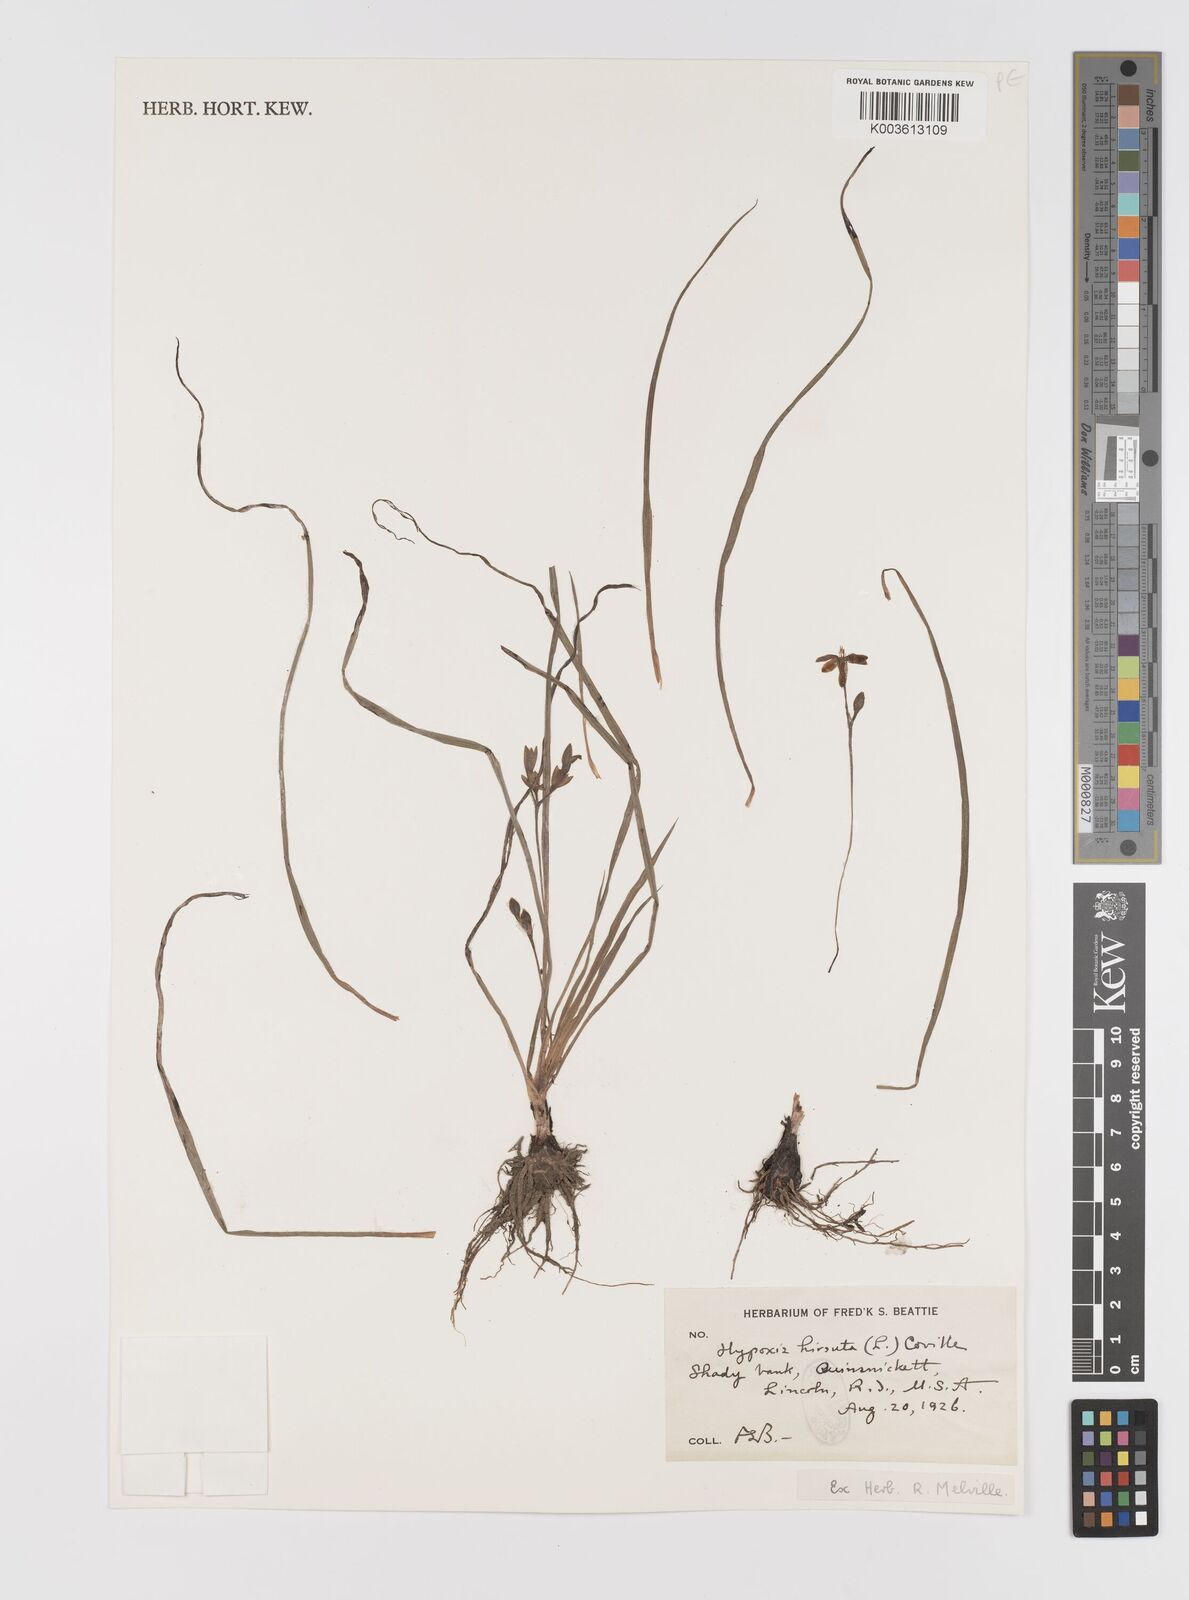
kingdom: Plantae
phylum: Tracheophyta
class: Liliopsida
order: Asparagales
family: Hypoxidaceae
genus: Hypoxis
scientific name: Hypoxis hirsuta
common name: Common goldstar
